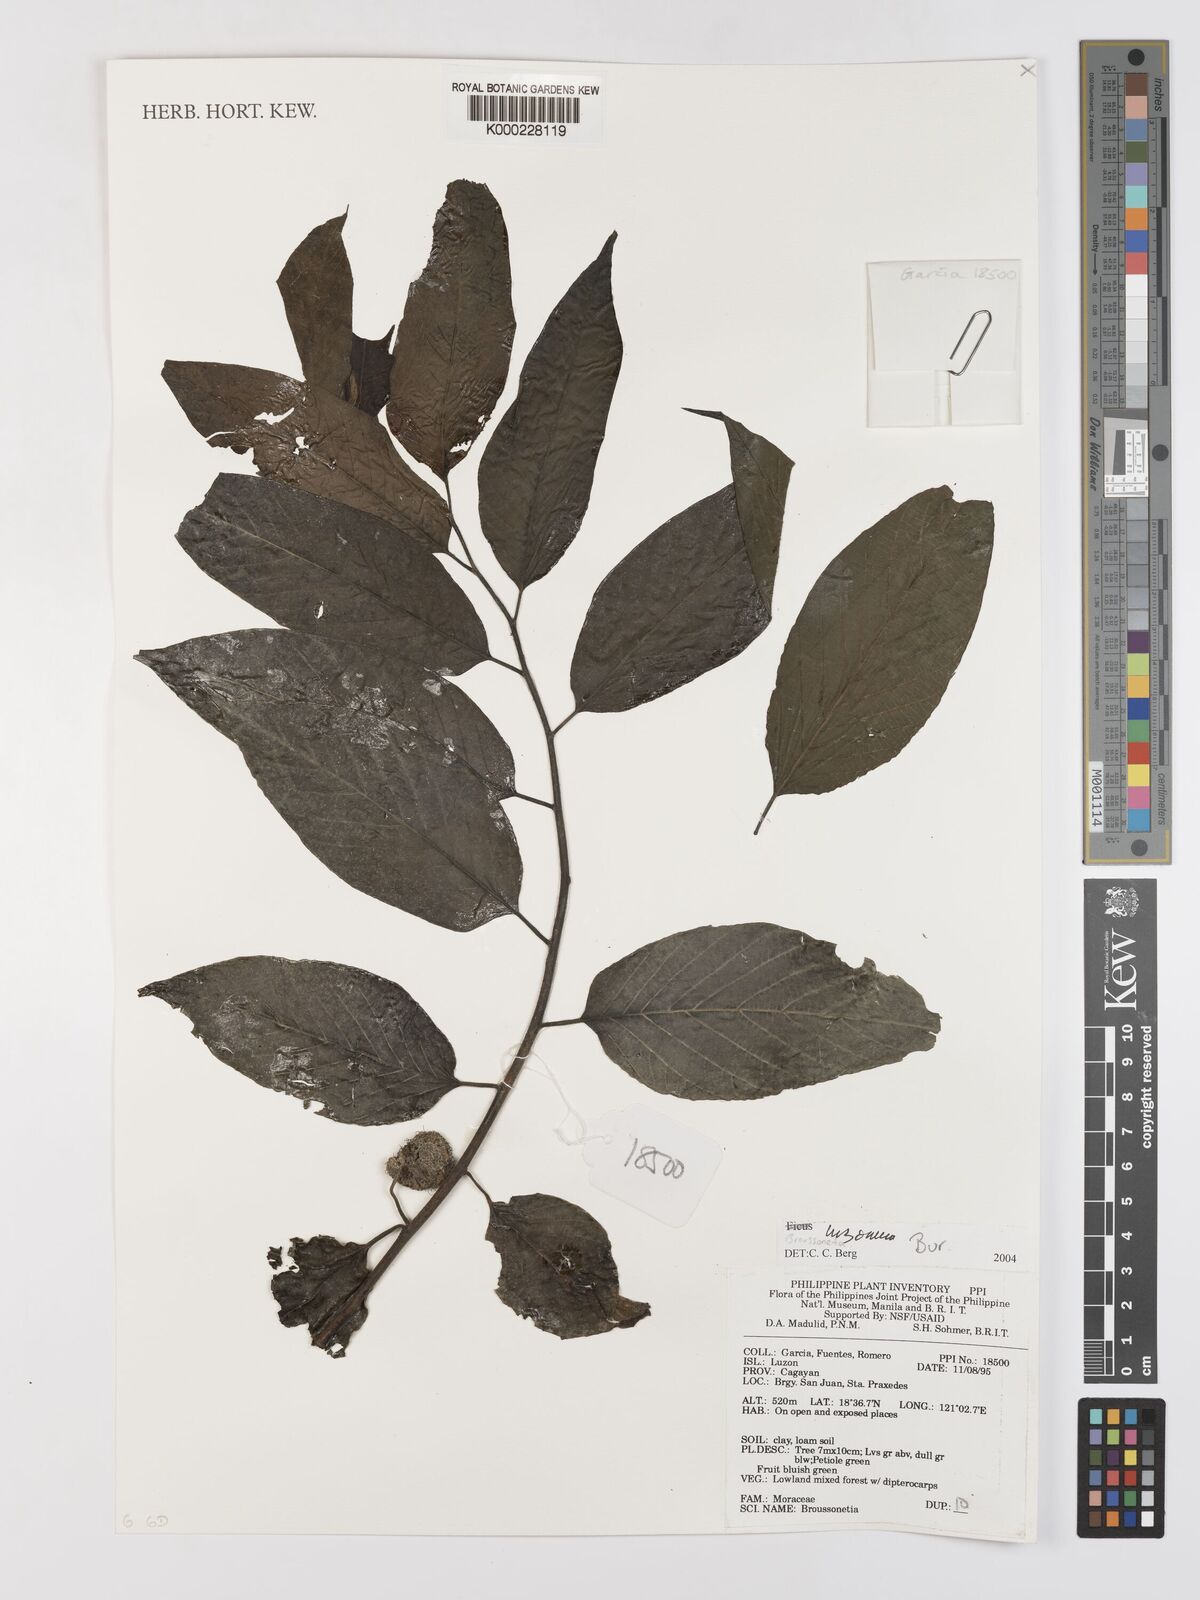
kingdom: Plantae
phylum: Tracheophyta
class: Magnoliopsida
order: Rosales
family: Moraceae
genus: Allaeanthus
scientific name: Allaeanthus luzonicus
